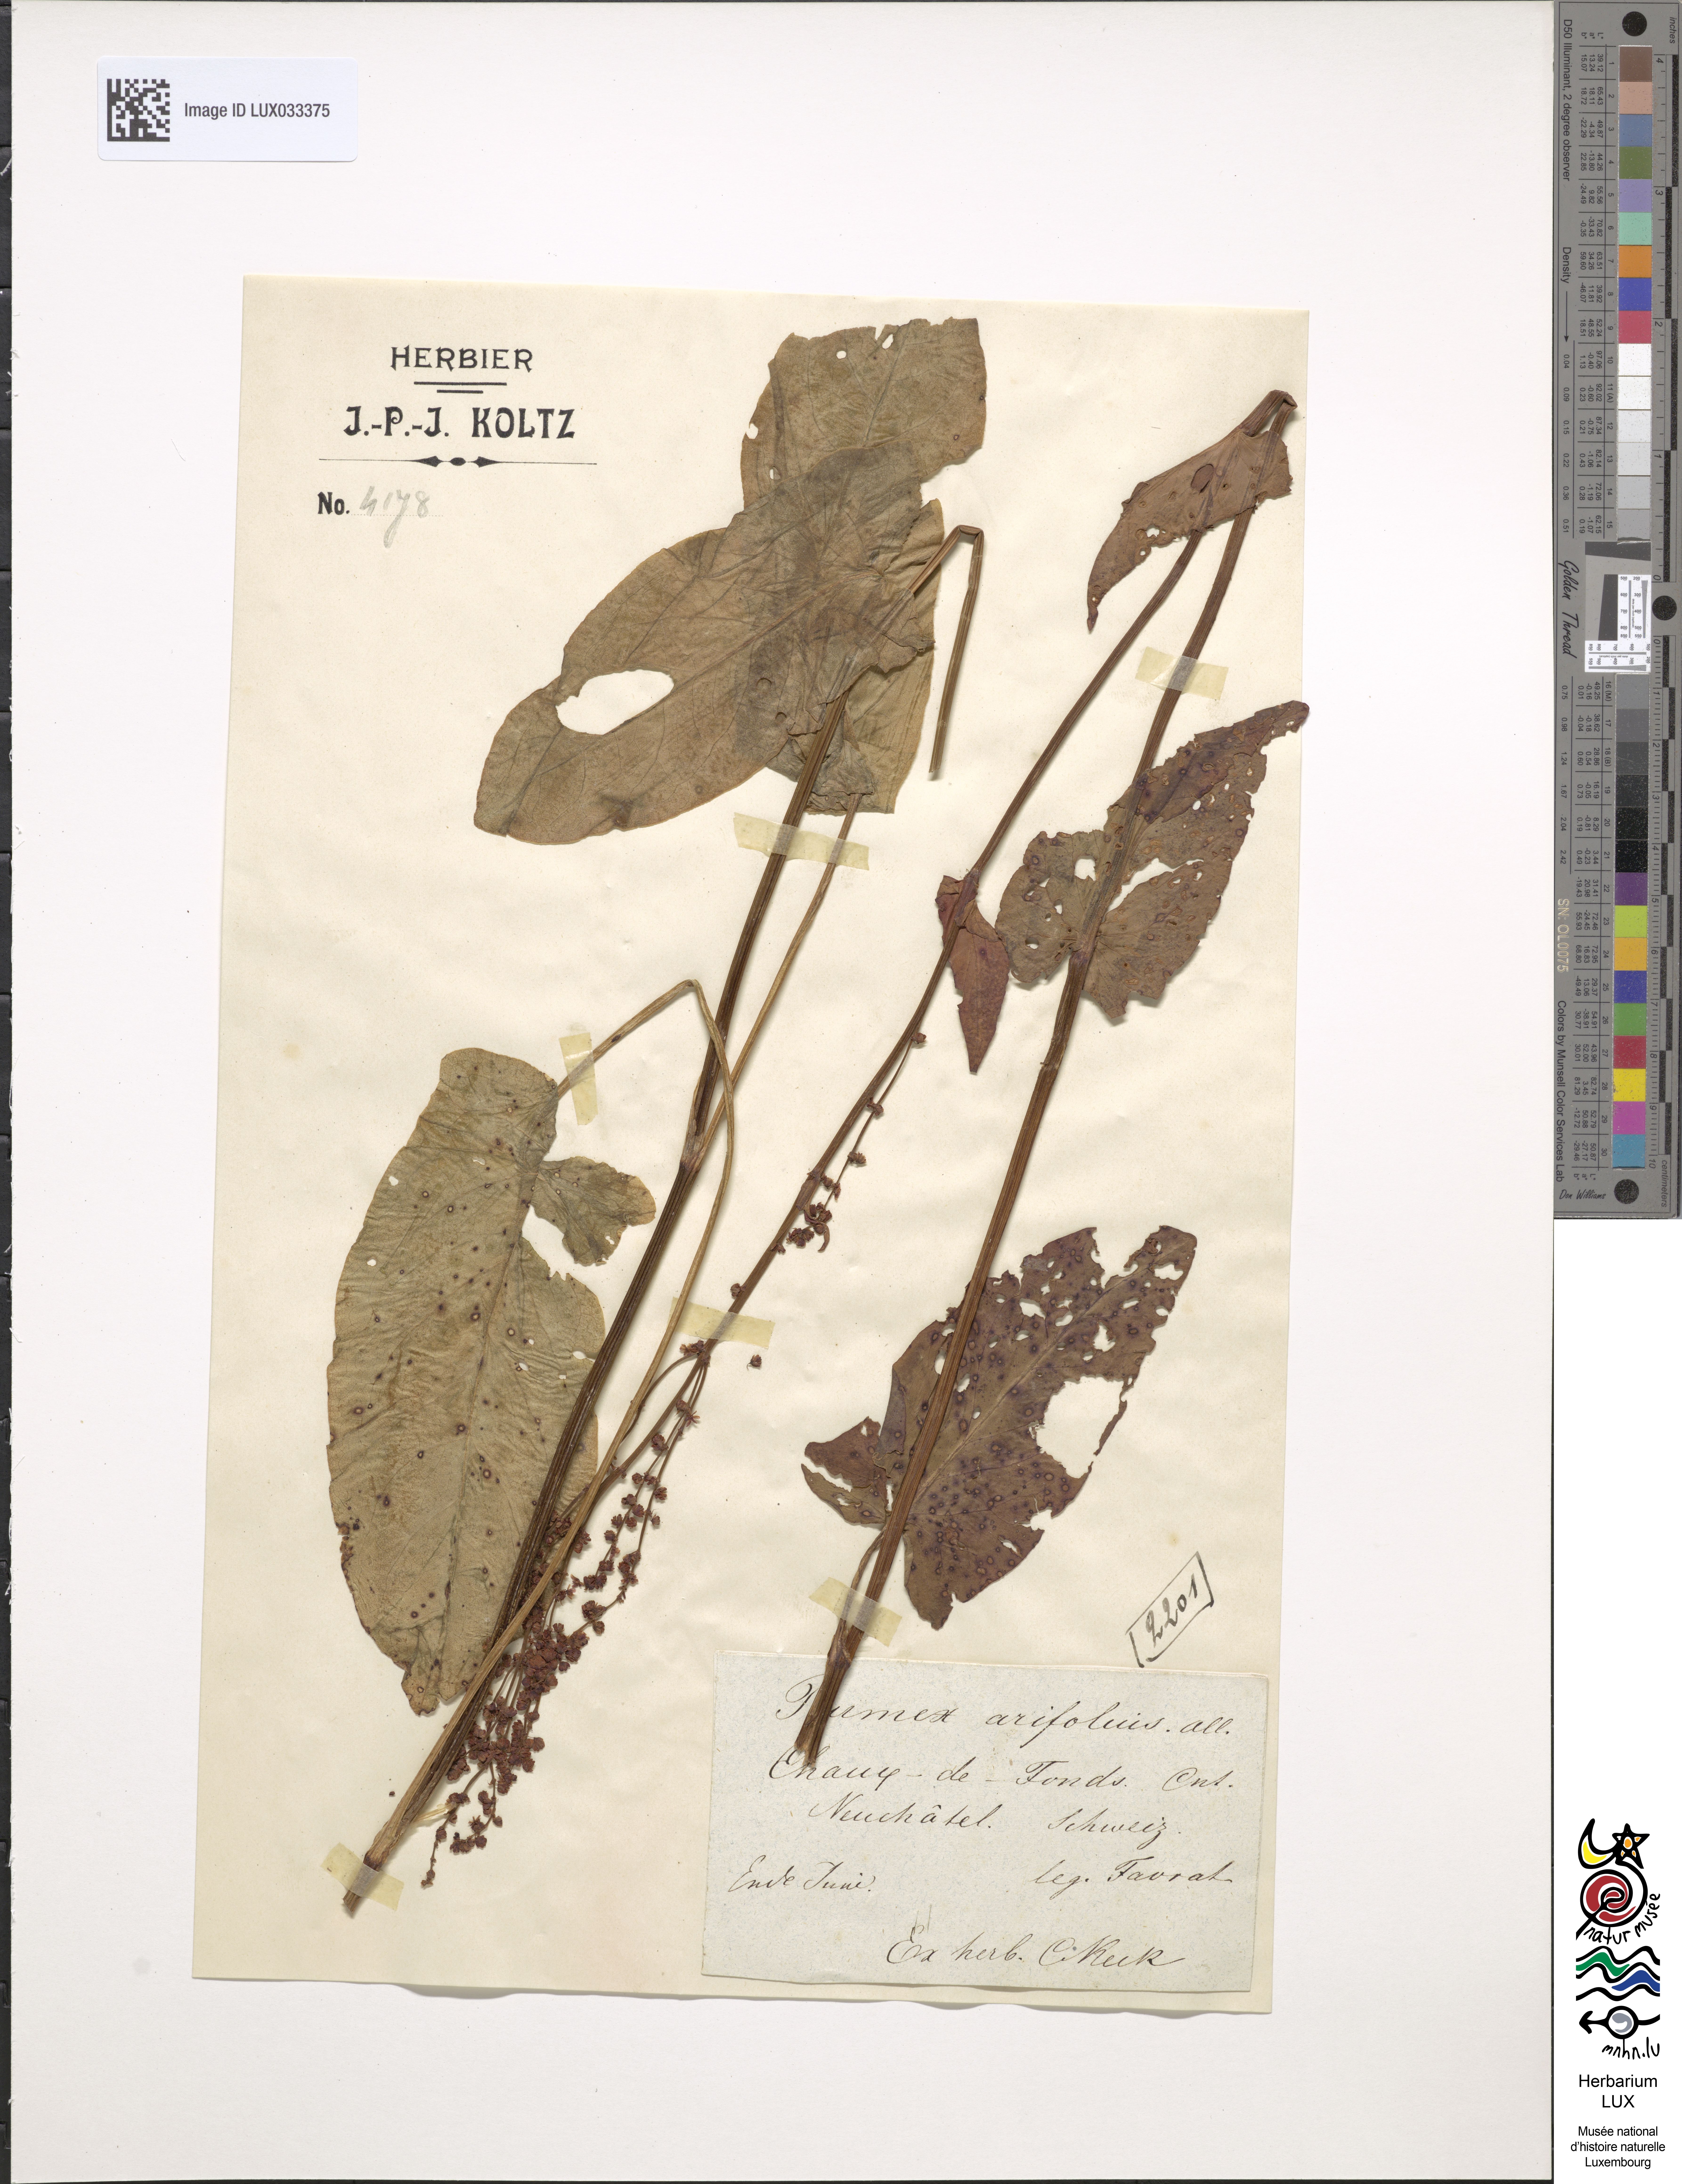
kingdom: Plantae
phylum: Tracheophyta
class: Magnoliopsida
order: Caryophyllales
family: Polygonaceae
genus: Rumex
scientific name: Rumex scutatus
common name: French sorrel
